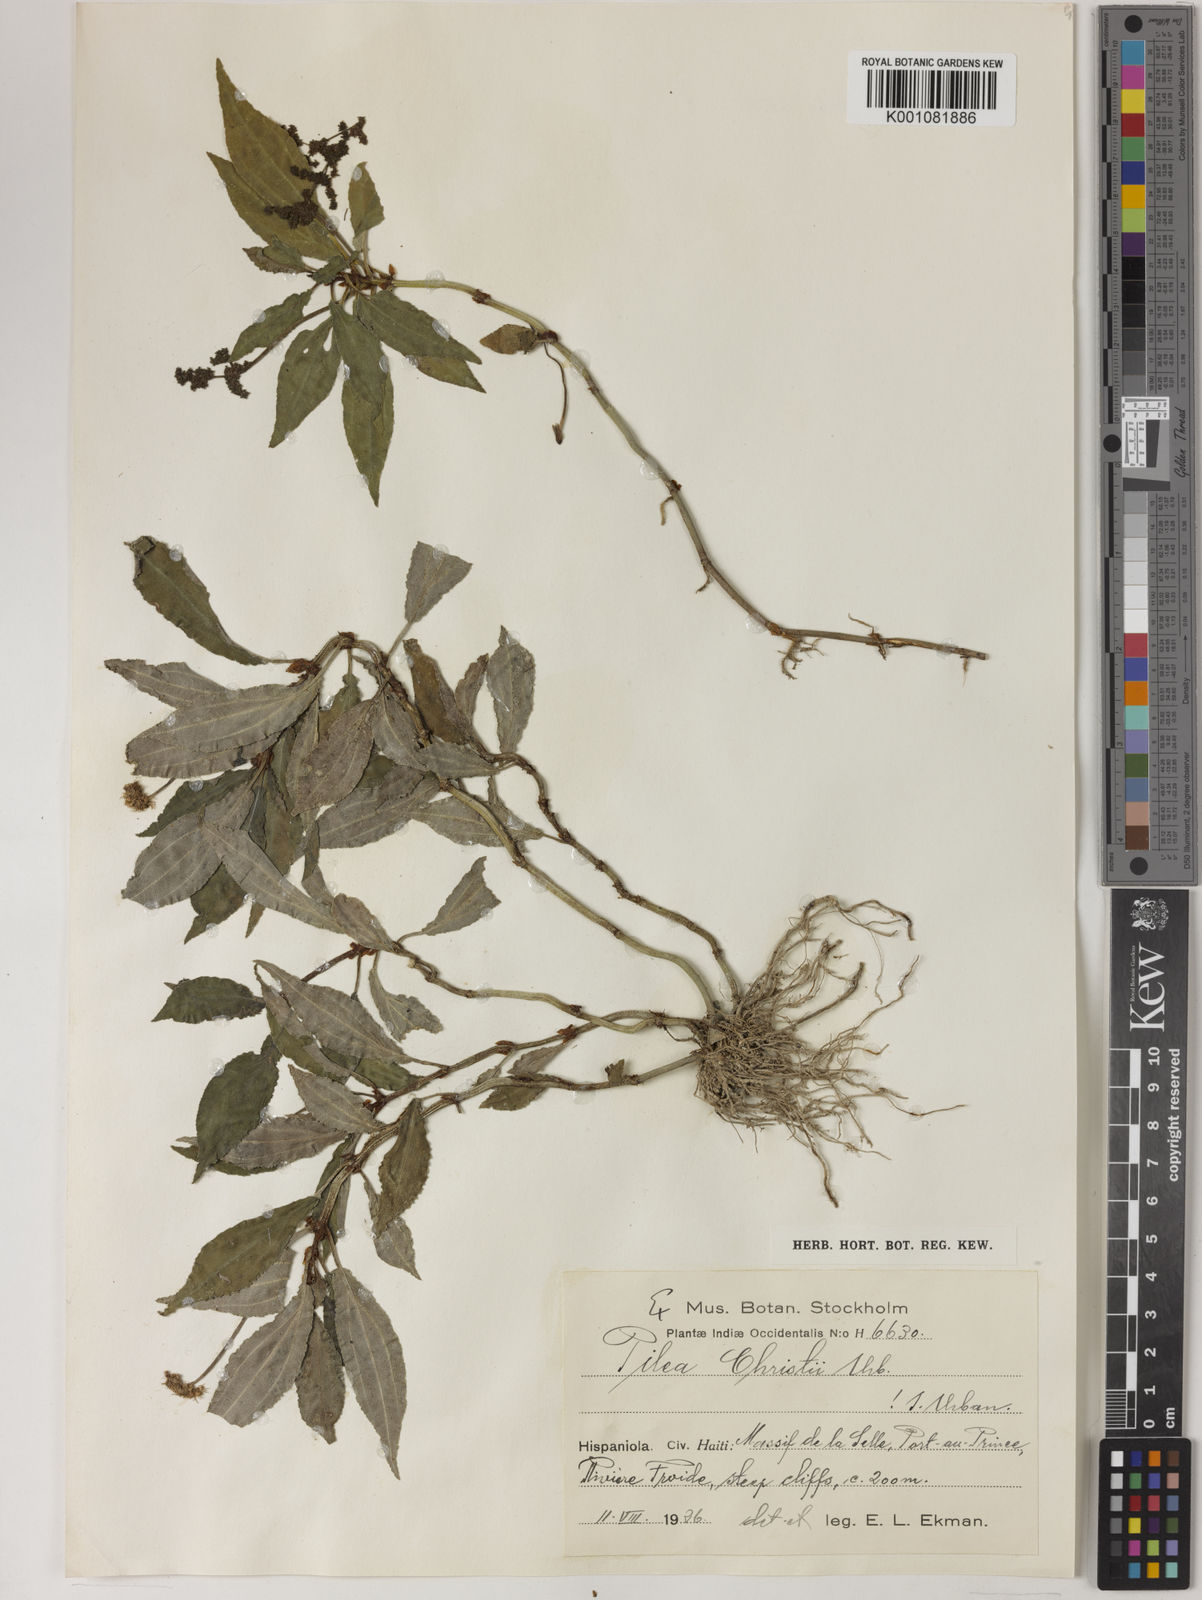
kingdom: Plantae
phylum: Tracheophyta
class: Magnoliopsida
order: Rosales
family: Urticaceae
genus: Pilea
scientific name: Pilea christii
